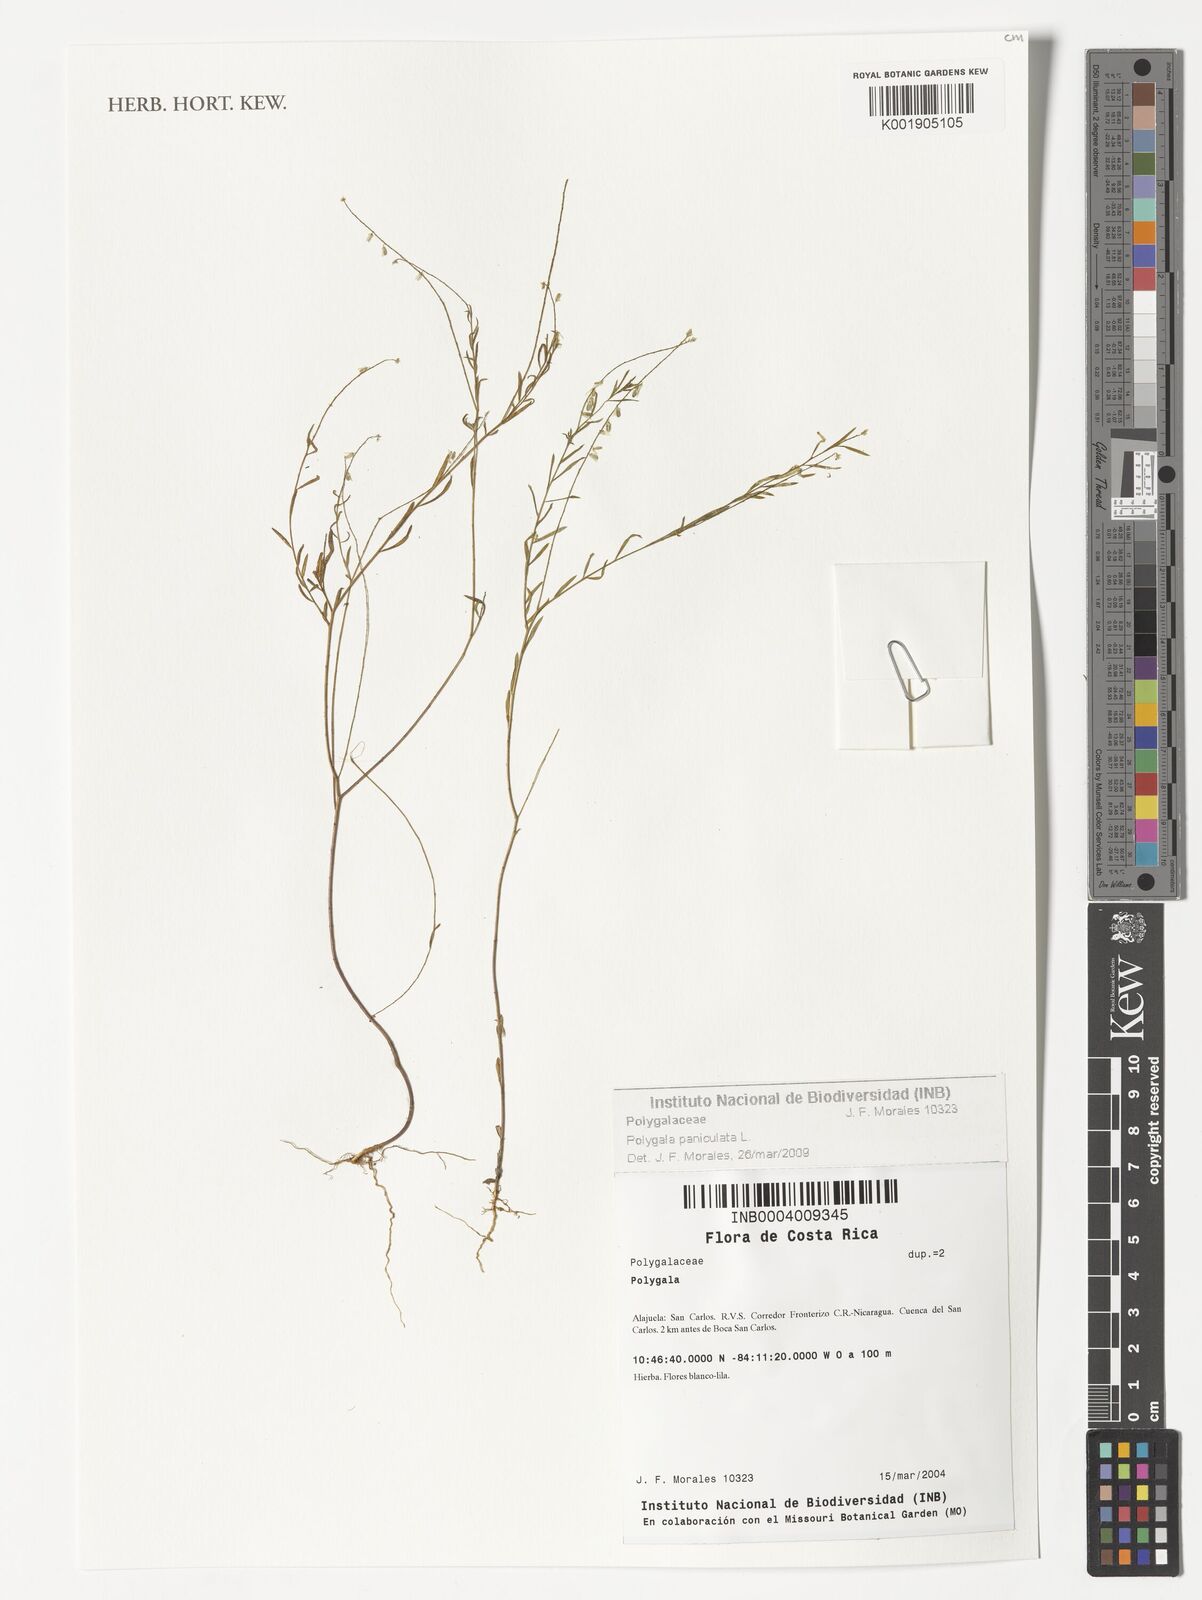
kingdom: Plantae
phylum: Tracheophyta
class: Magnoliopsida
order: Fabales
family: Polygalaceae
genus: Polygala
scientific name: Polygala paniculata
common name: Orosne
